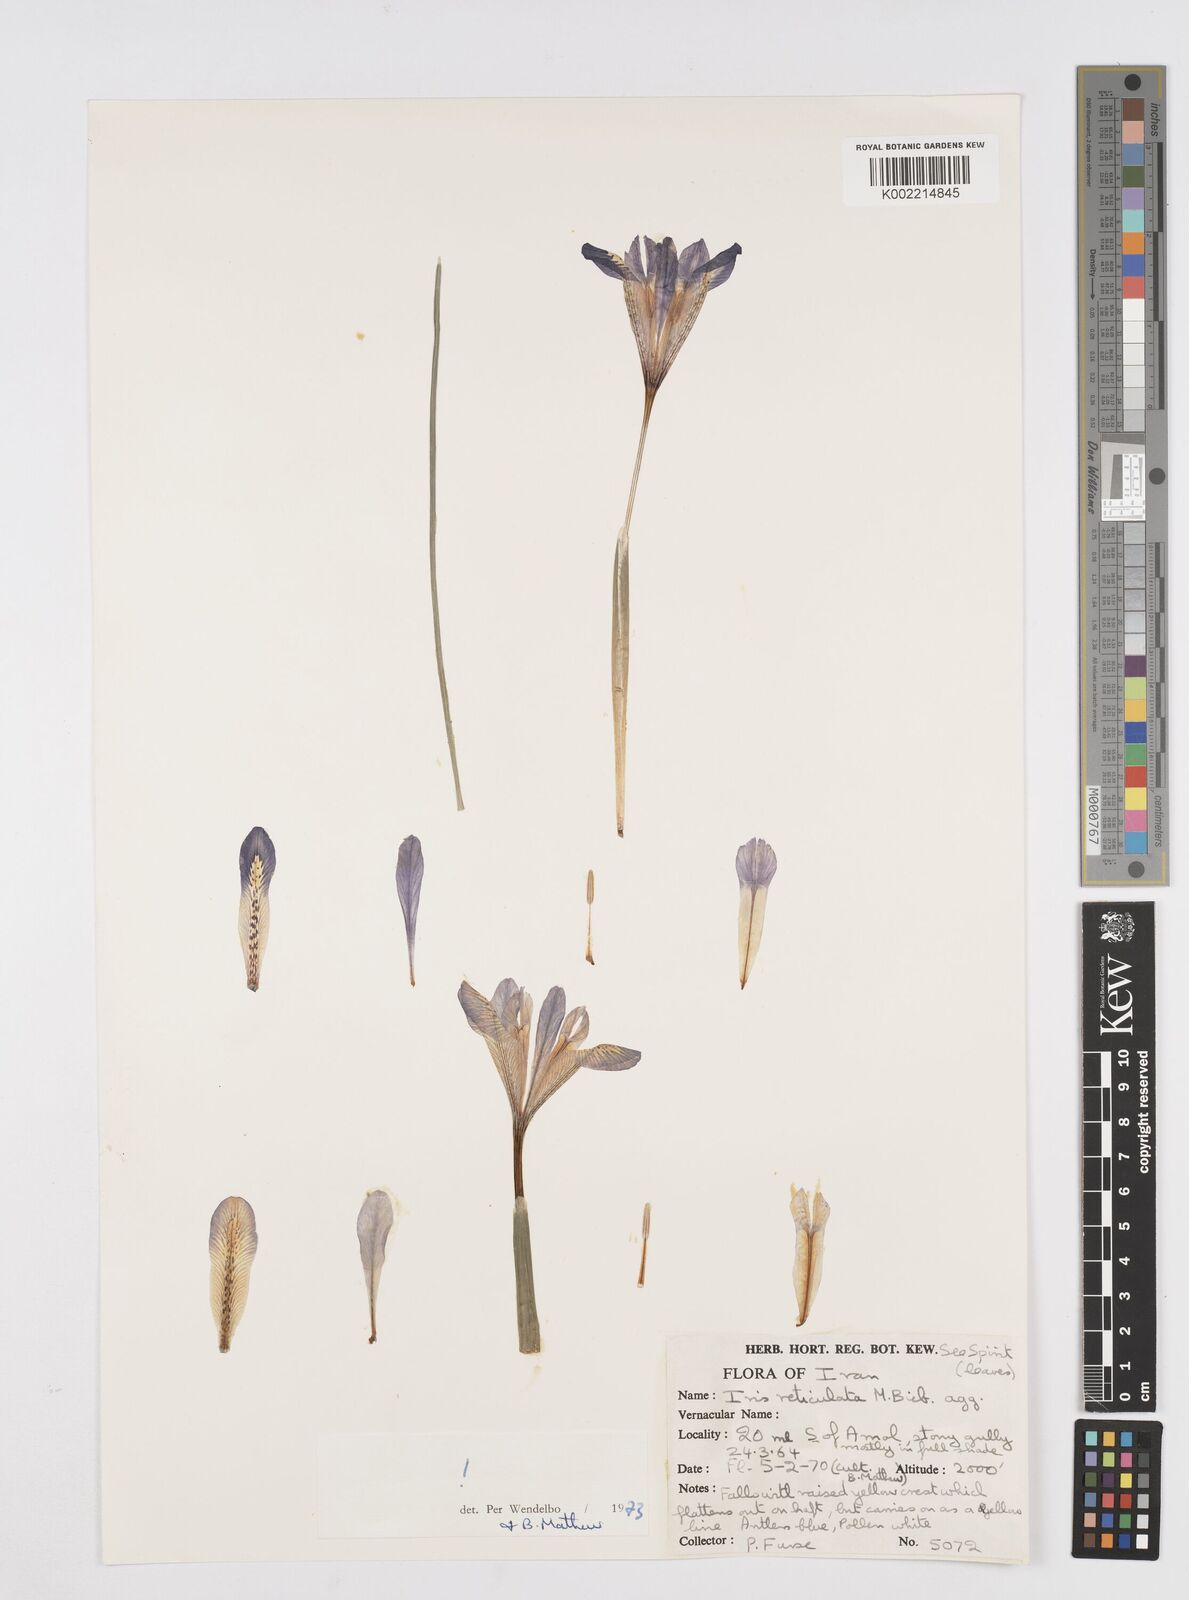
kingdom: Plantae
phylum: Tracheophyta
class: Liliopsida
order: Asparagales
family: Iridaceae
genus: Iris
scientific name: Iris reticulata
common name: Netted iris
